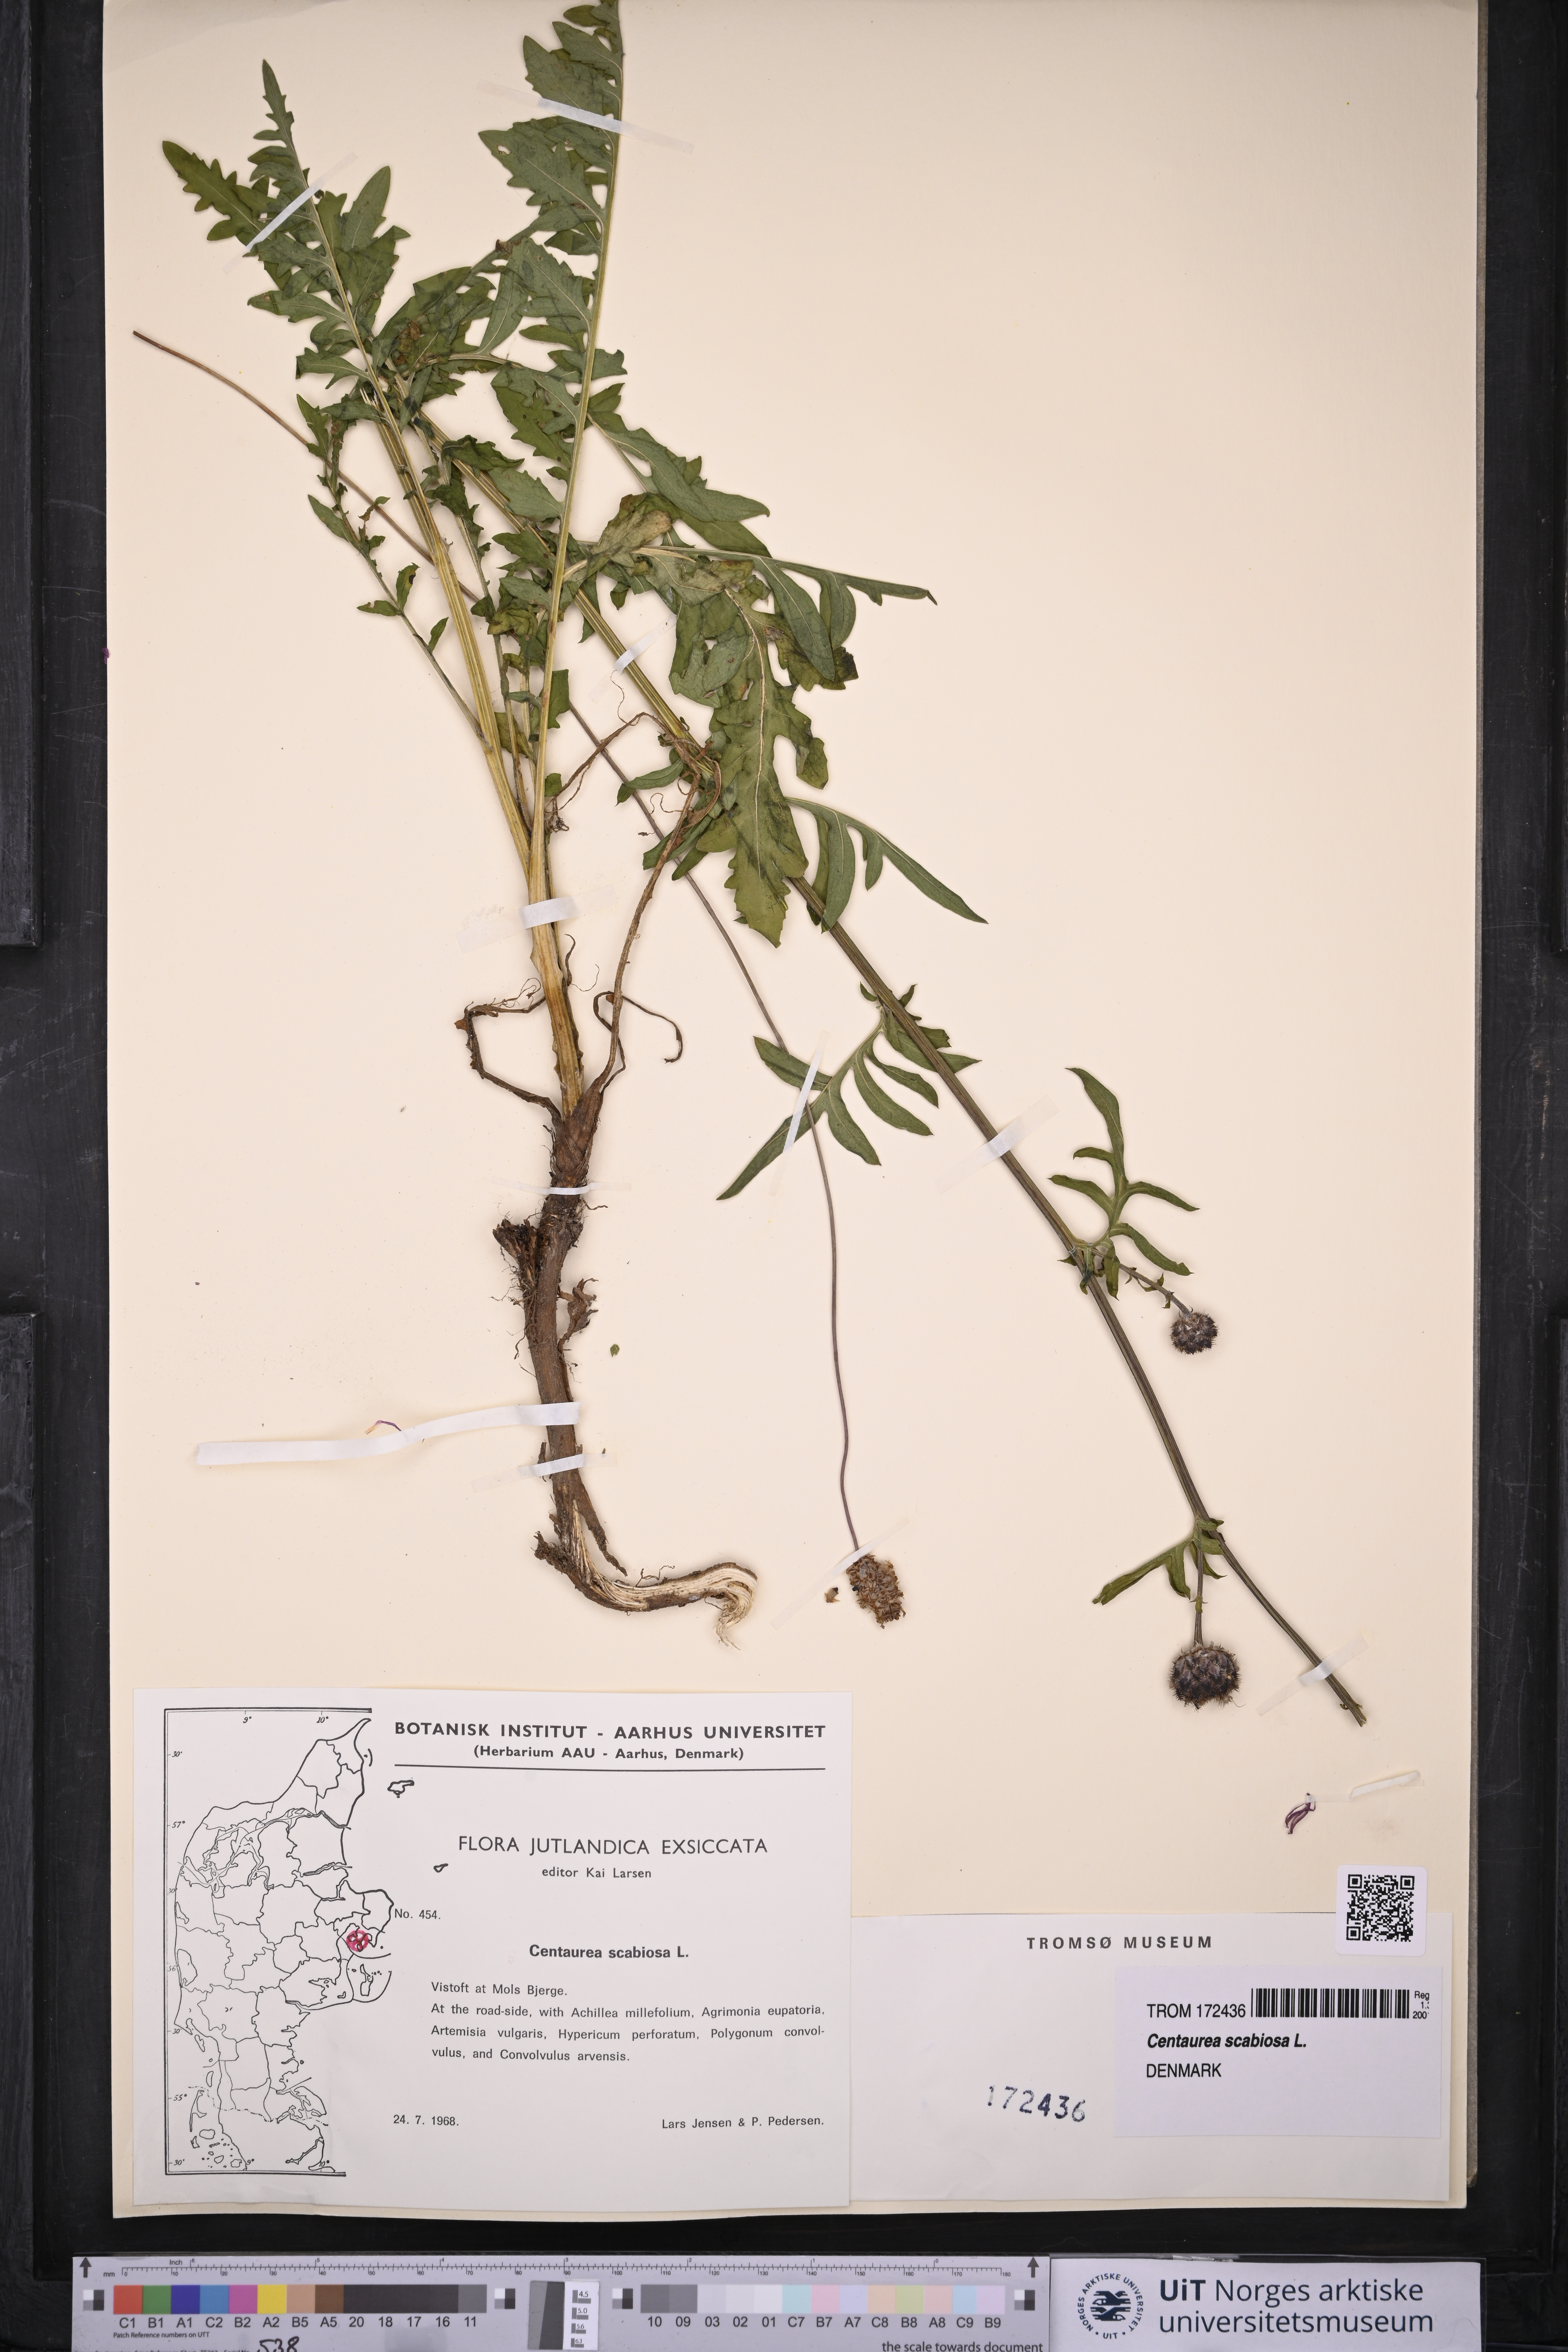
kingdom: Plantae
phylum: Tracheophyta
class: Magnoliopsida
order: Asterales
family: Asteraceae
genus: Centaurea
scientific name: Centaurea scabiosa
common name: Greater knapweed
